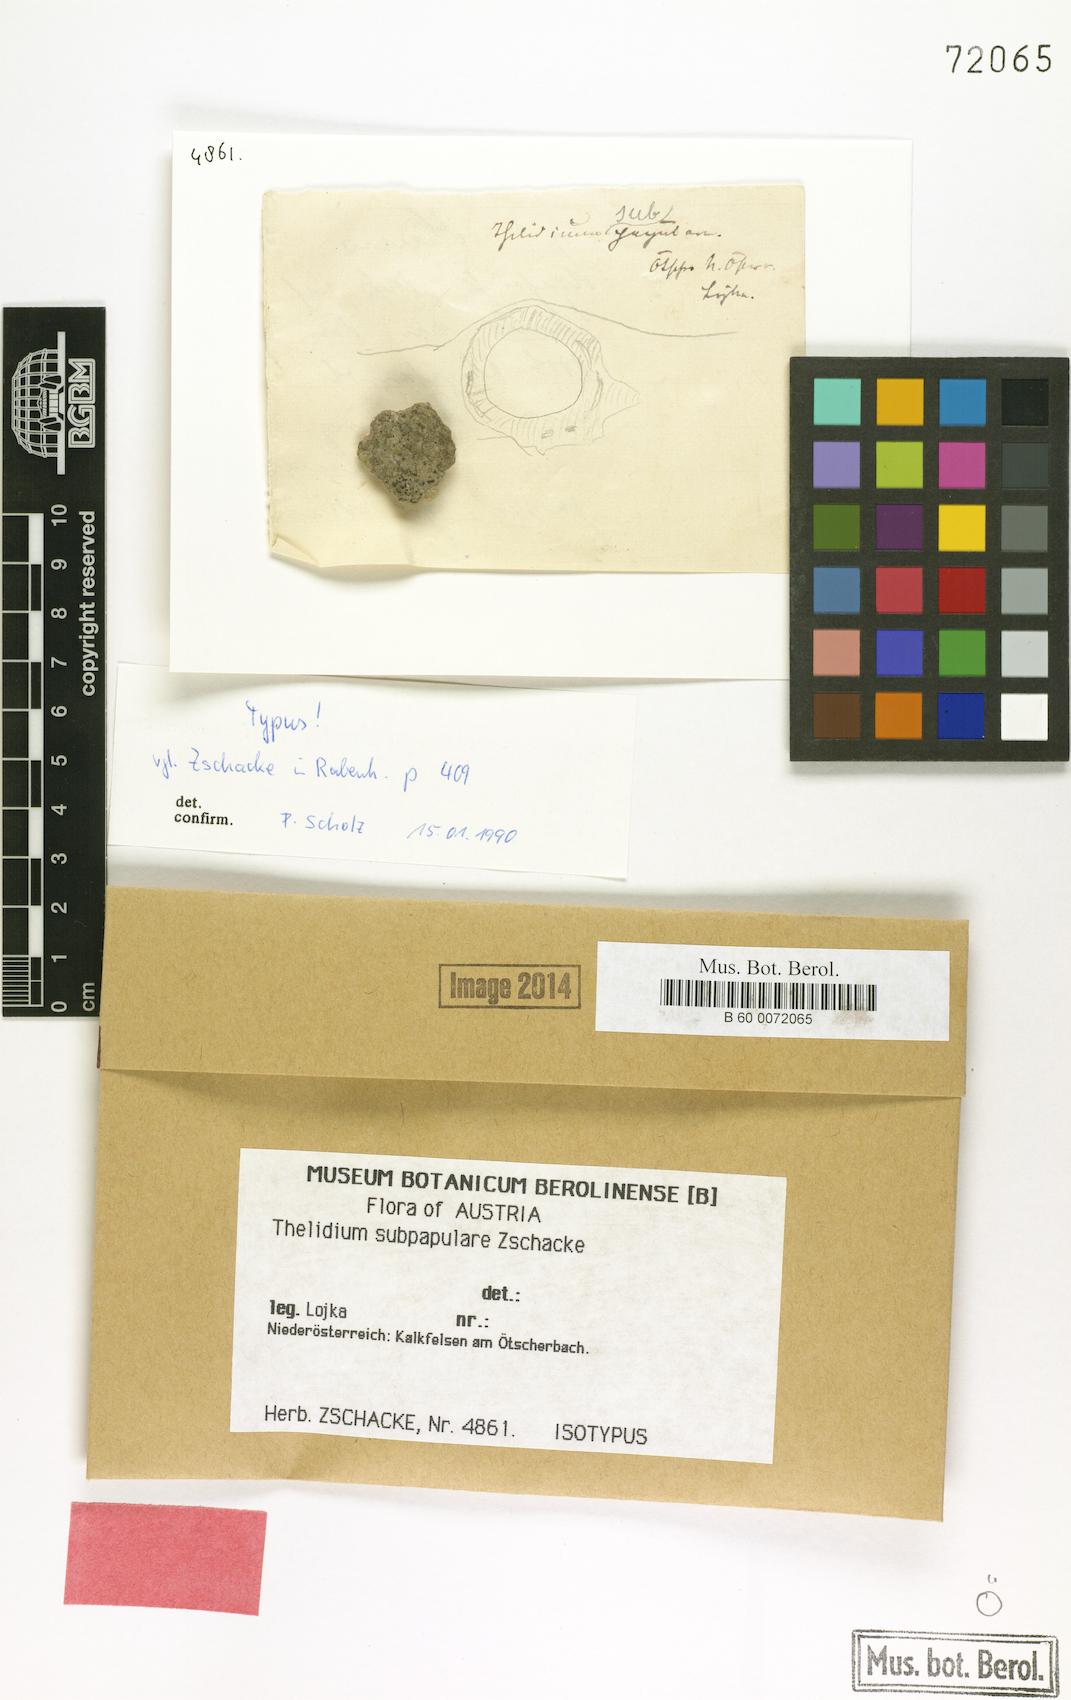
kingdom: Fungi
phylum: Ascomycota
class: Eurotiomycetes
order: Verrucariales
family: Verrucariaceae
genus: Thelidium
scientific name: Thelidium subpapulare
